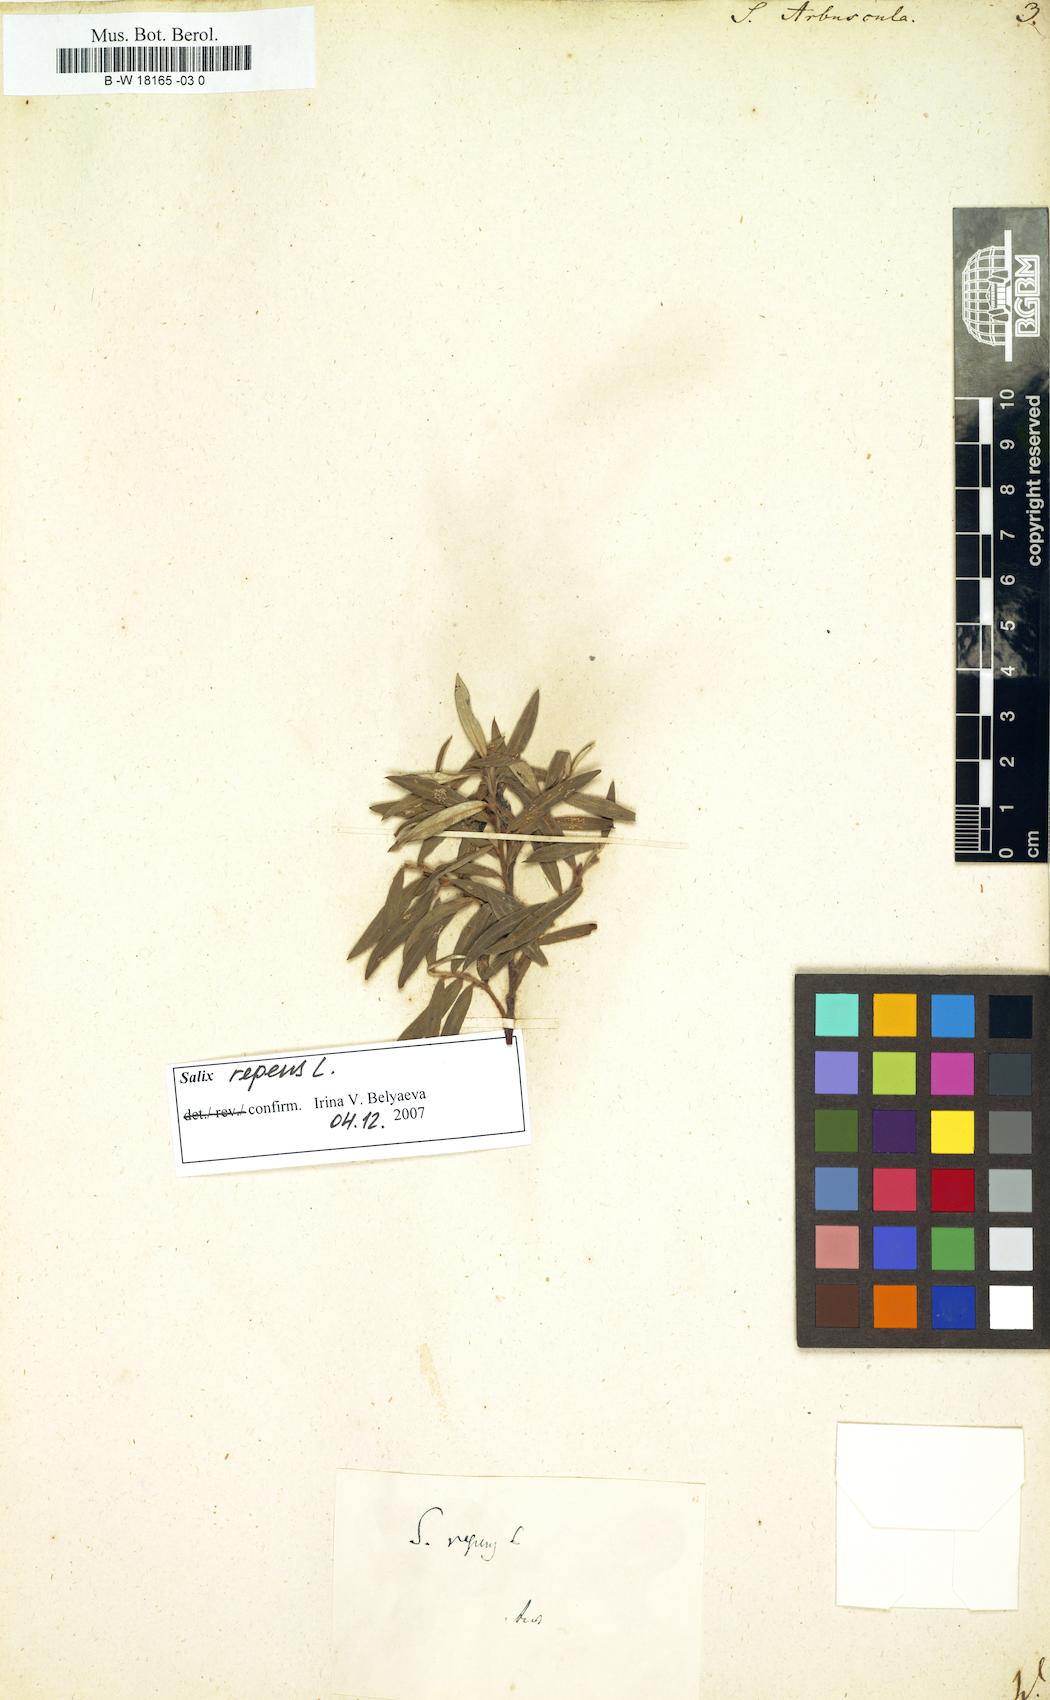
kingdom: Plantae
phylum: Tracheophyta
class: Magnoliopsida
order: Malpighiales
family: Salicaceae
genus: Salix
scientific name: Salix arbuscula
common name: Mountain willow
